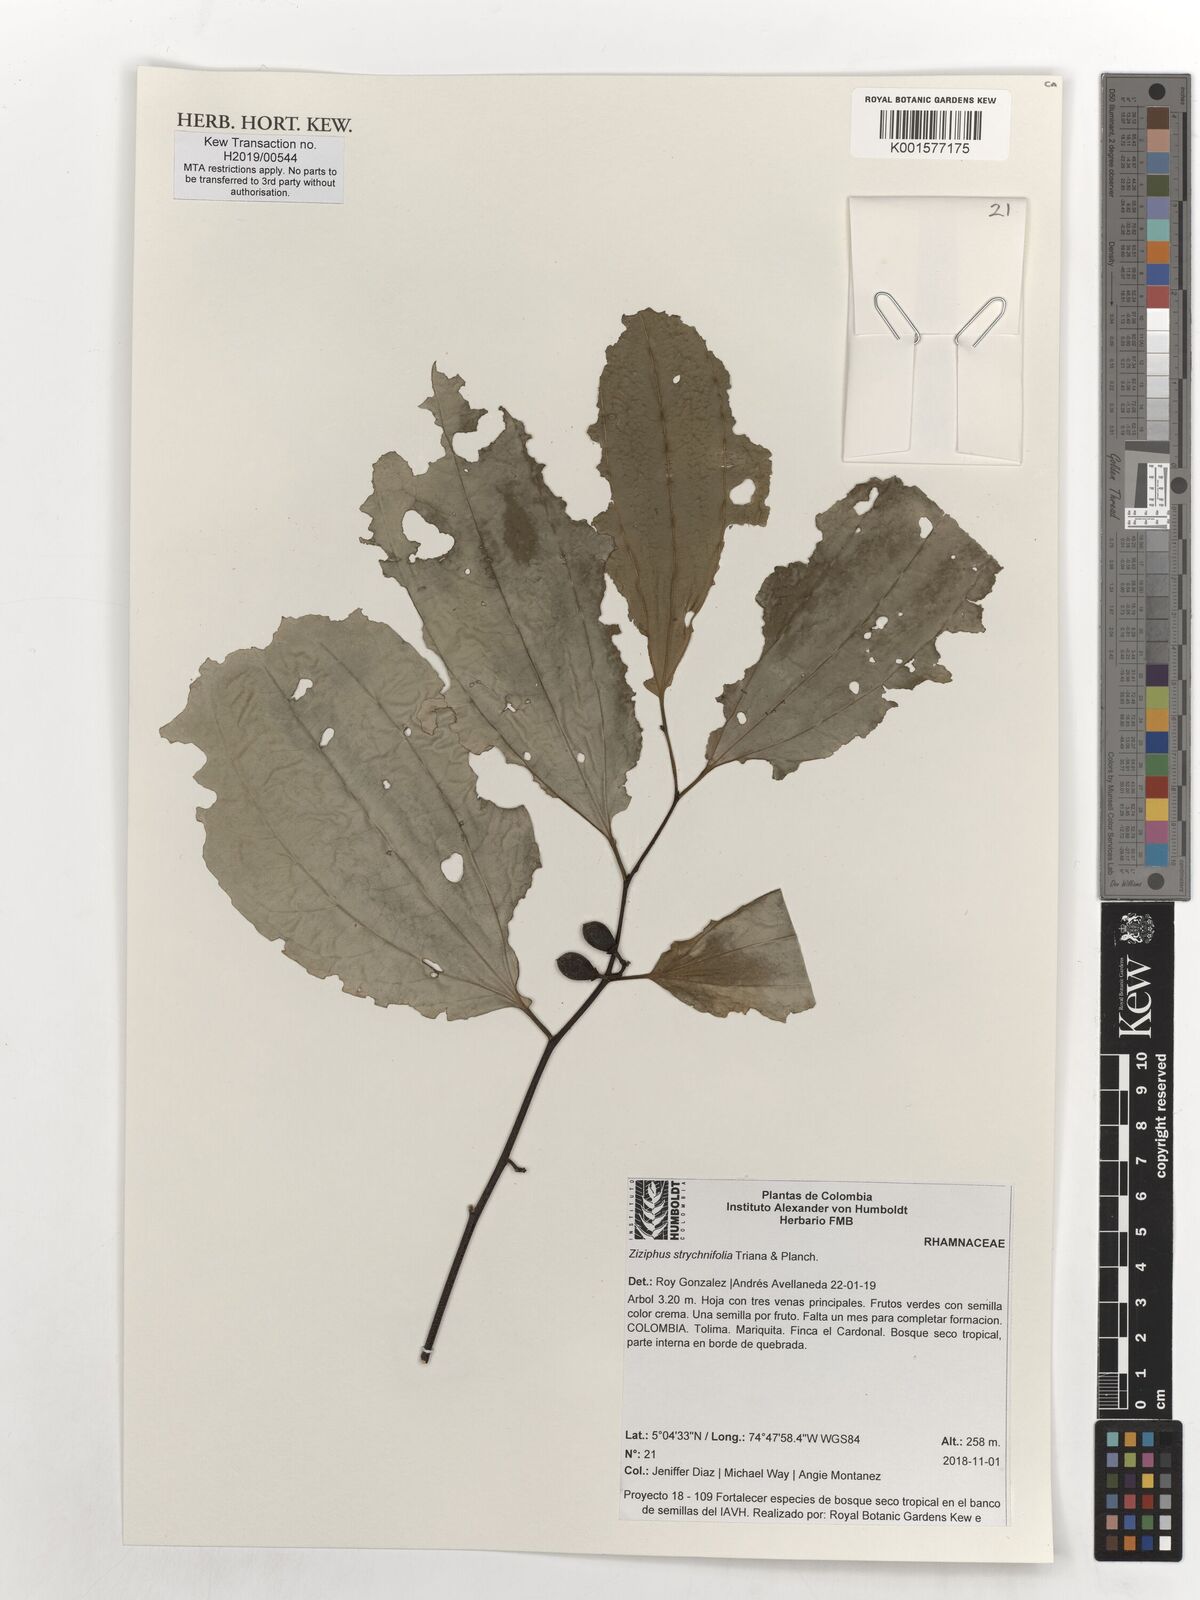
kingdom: Plantae
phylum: Tracheophyta
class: Magnoliopsida
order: Rosales
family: Rhamnaceae
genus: Sarcomphalus
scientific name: Sarcomphalus strychnifolius
